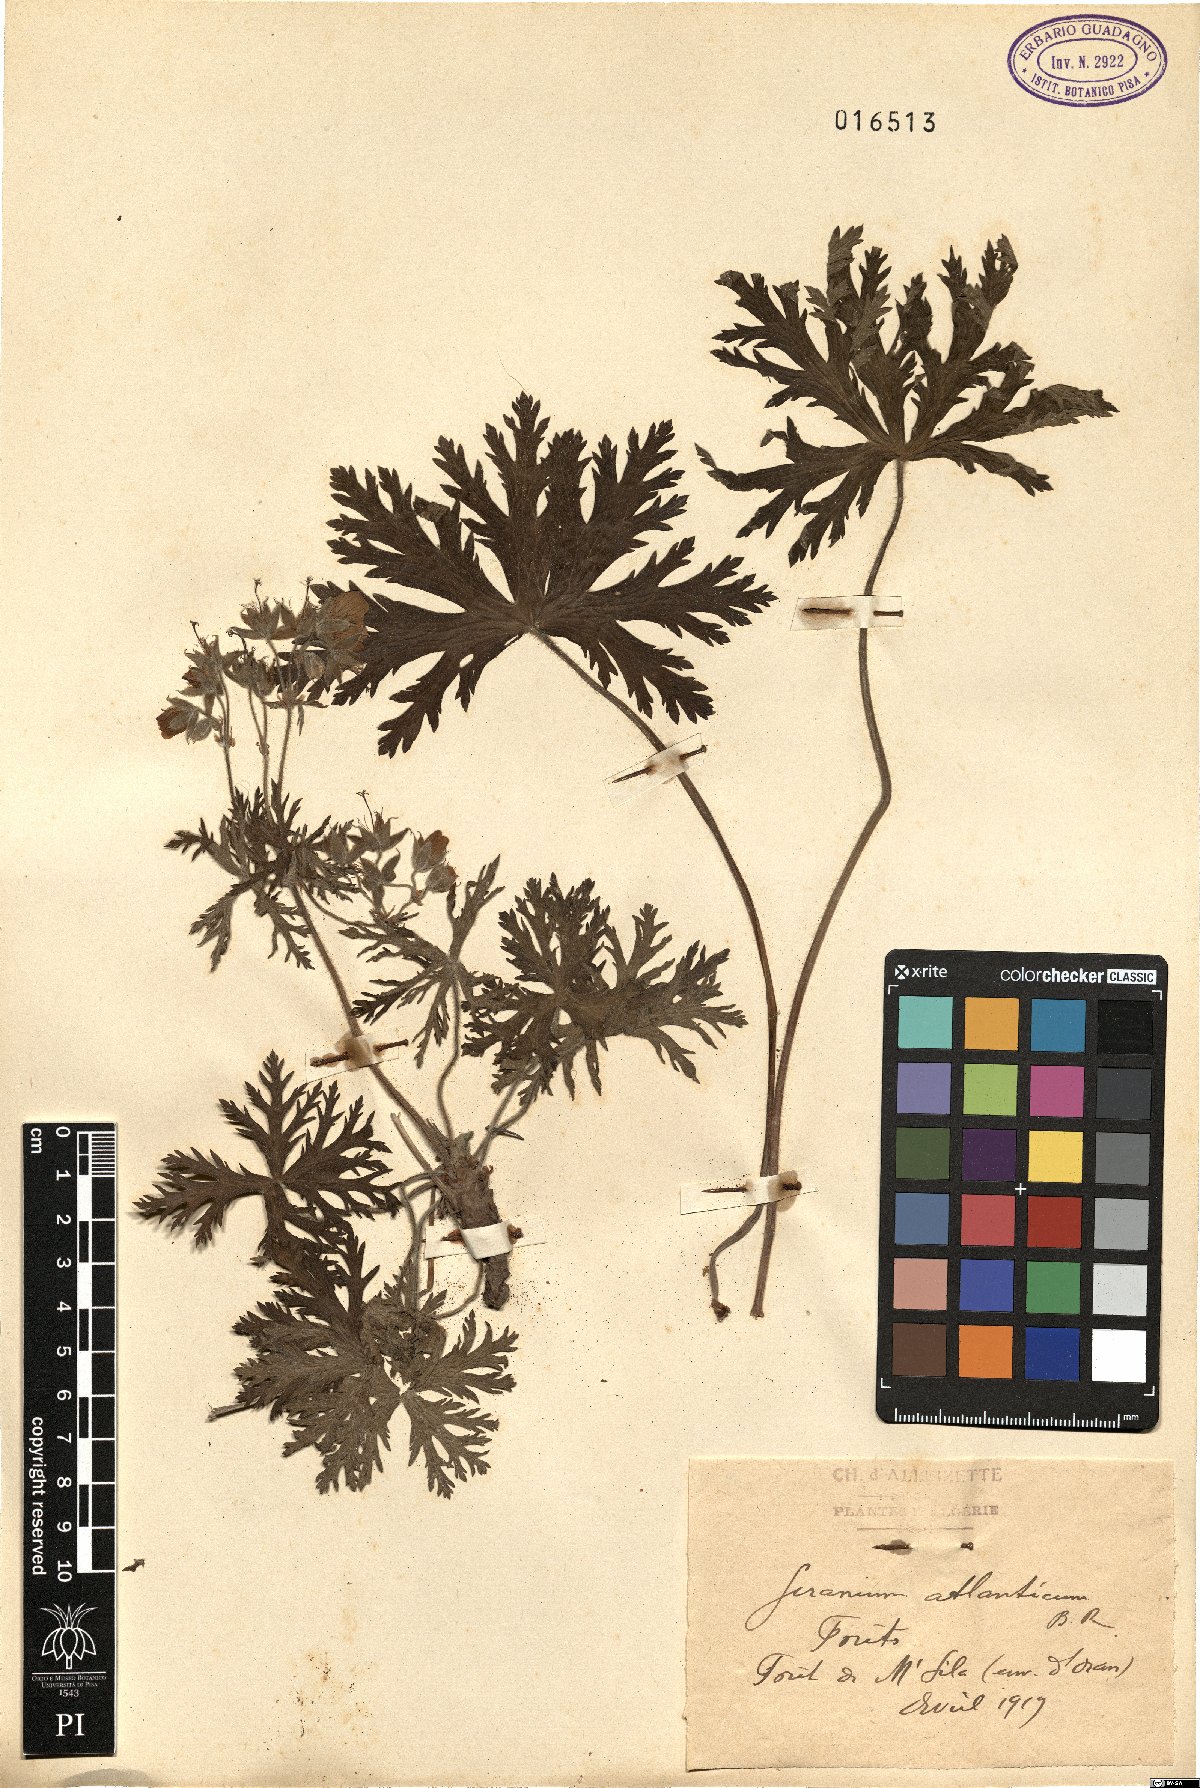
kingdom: Plantae
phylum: Tracheophyta
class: Magnoliopsida
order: Geraniales
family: Geraniaceae
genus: Geranium
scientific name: Geranium atlanticum
